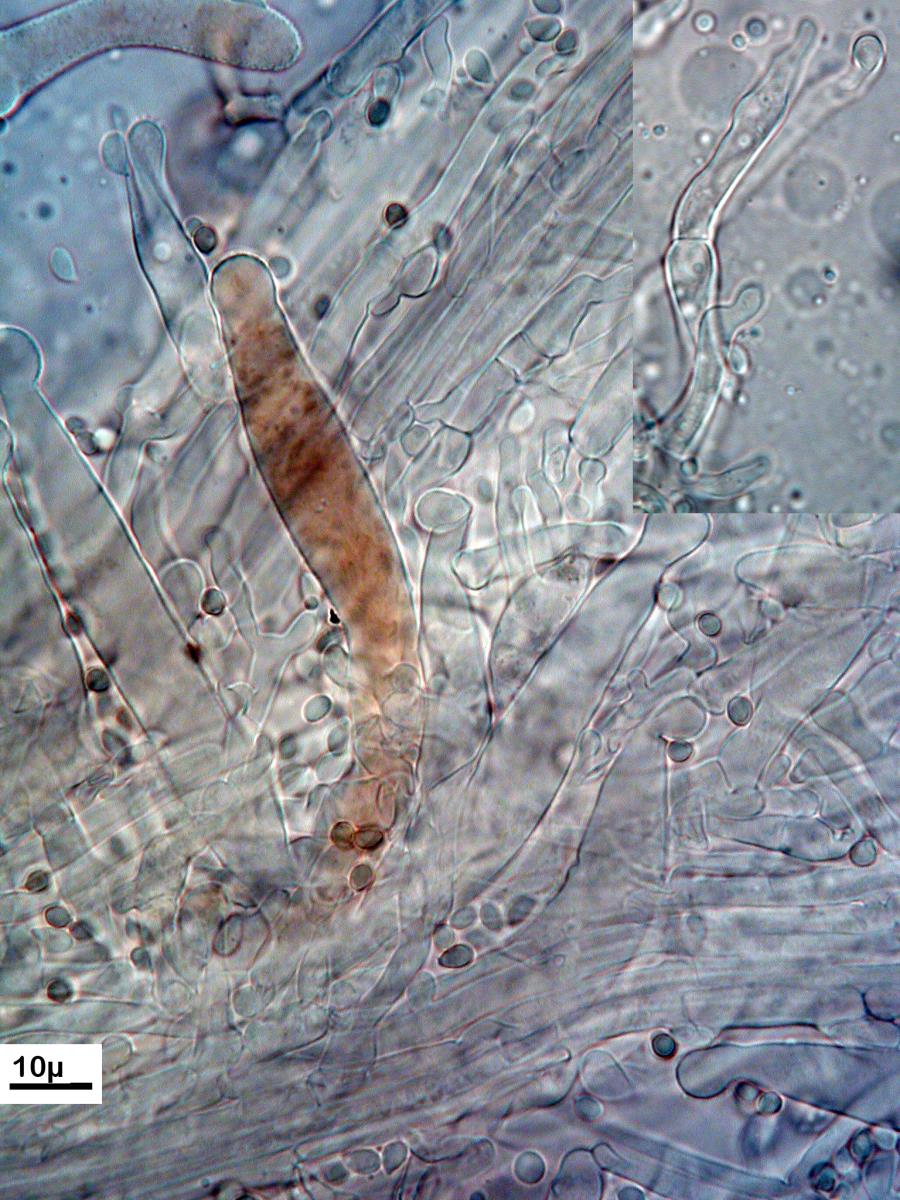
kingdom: Fungi
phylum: Basidiomycota
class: Agaricomycetes
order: Agaricales
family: Physalacriaceae
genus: Physalacria
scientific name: Physalacria pseudotropica
